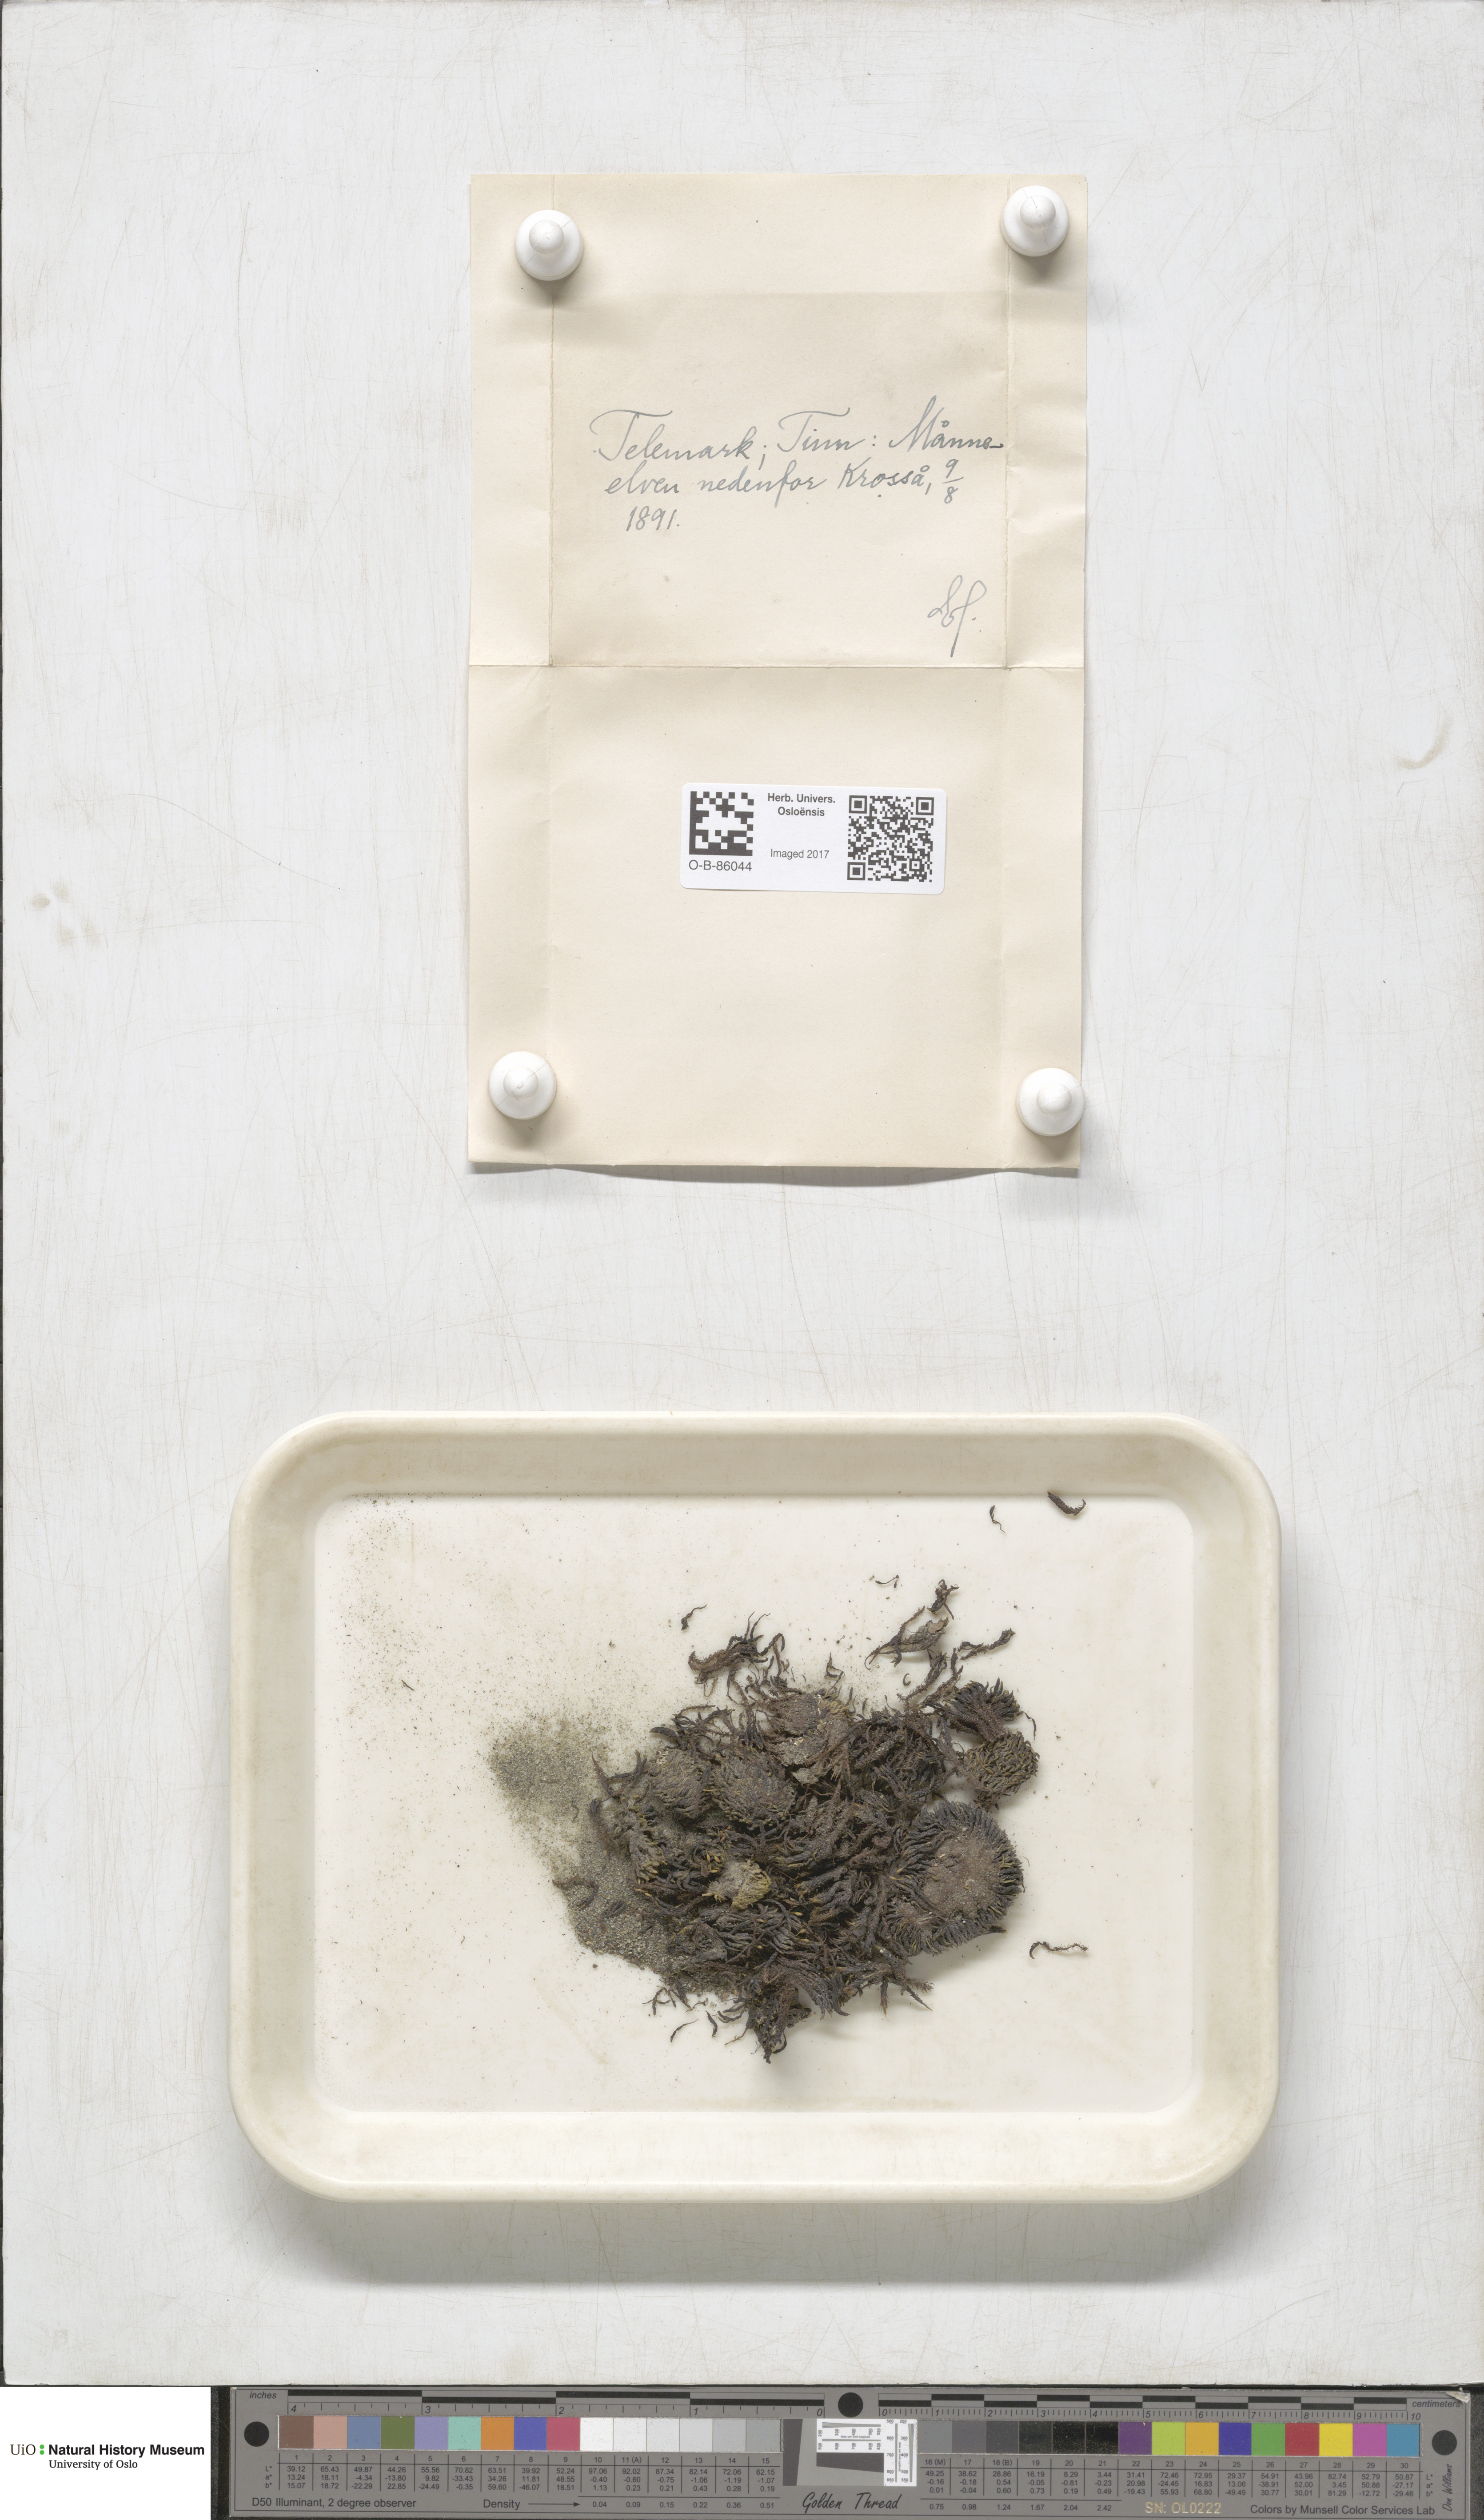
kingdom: Plantae
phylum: Bryophyta
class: Bryopsida
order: Grimmiales
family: Grimmiaceae
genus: Grimmia
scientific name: Grimmia ovalis
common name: Oval grimmia
